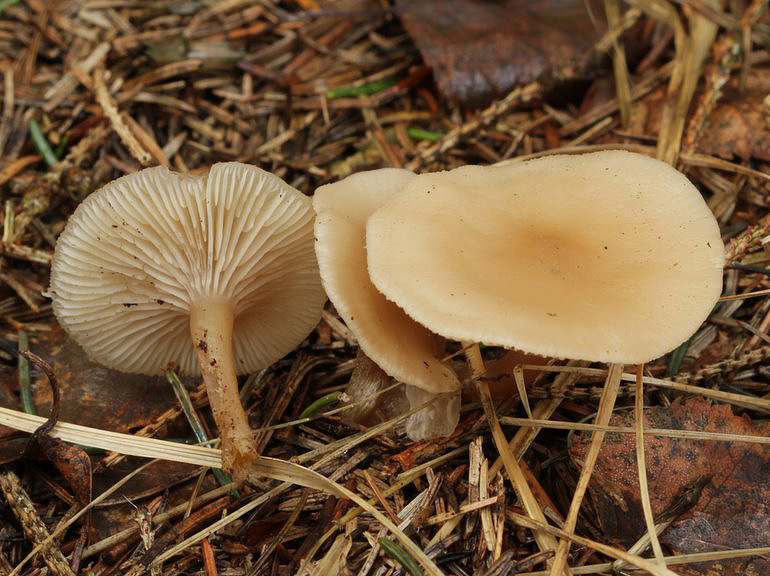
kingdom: Fungi
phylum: Basidiomycota
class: Agaricomycetes
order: Agaricales
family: Tricholomataceae
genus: Clitocybe
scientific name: Clitocybe fragrans
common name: vellugtende tragthat
